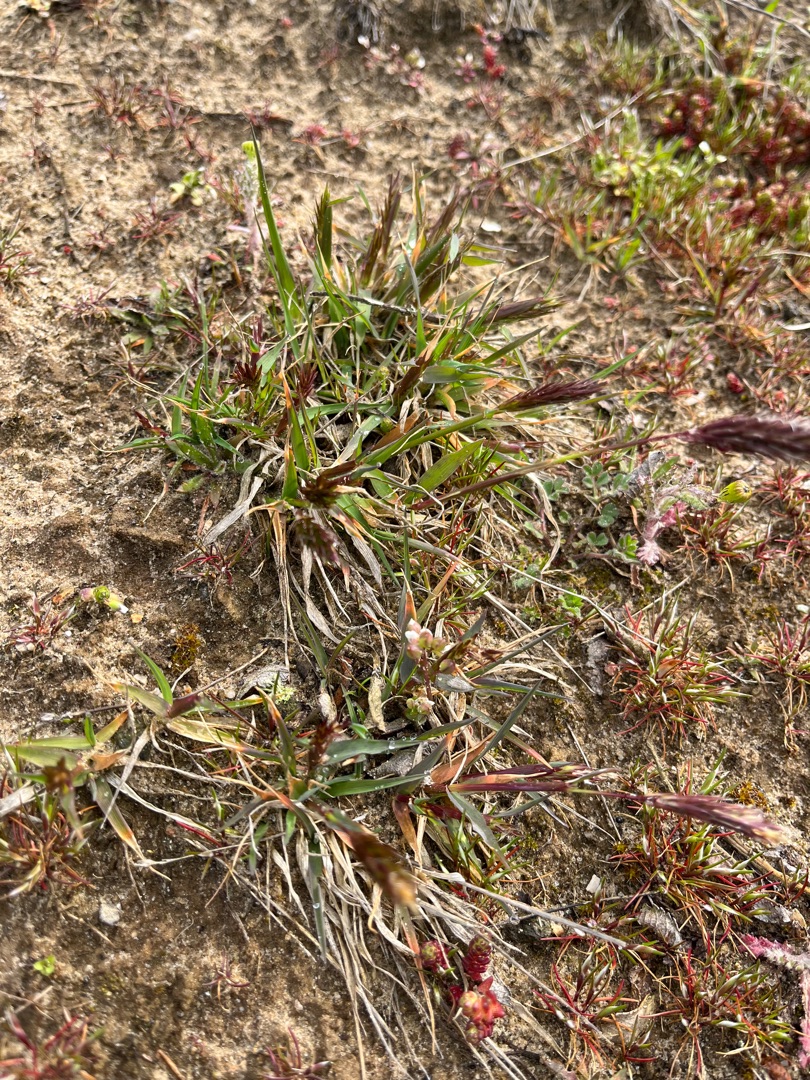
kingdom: Plantae
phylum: Tracheophyta
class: Liliopsida
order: Poales
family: Poaceae
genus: Anthoxanthum
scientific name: Anthoxanthum odoratum
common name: Vellugtende gulaks
